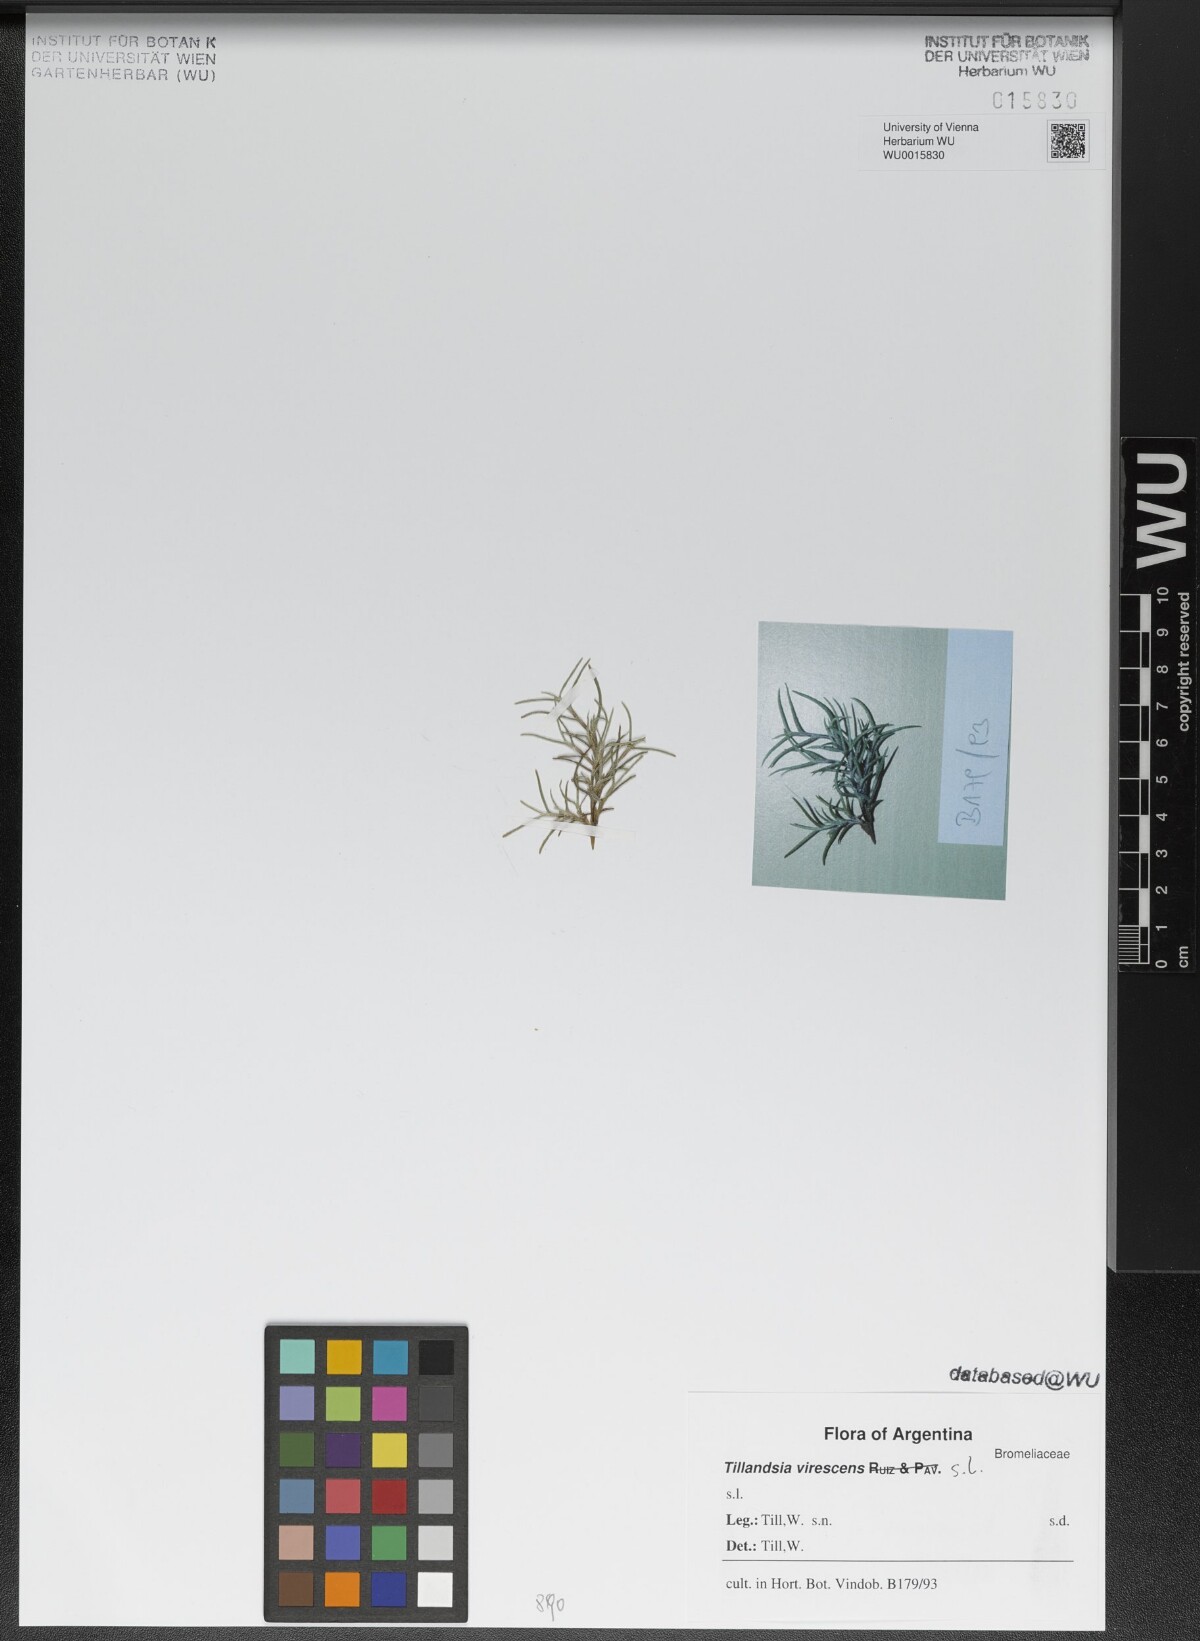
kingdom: Plantae
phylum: Tracheophyta
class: Liliopsida
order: Poales
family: Bromeliaceae
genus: Tillandsia
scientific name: Tillandsia virescens
